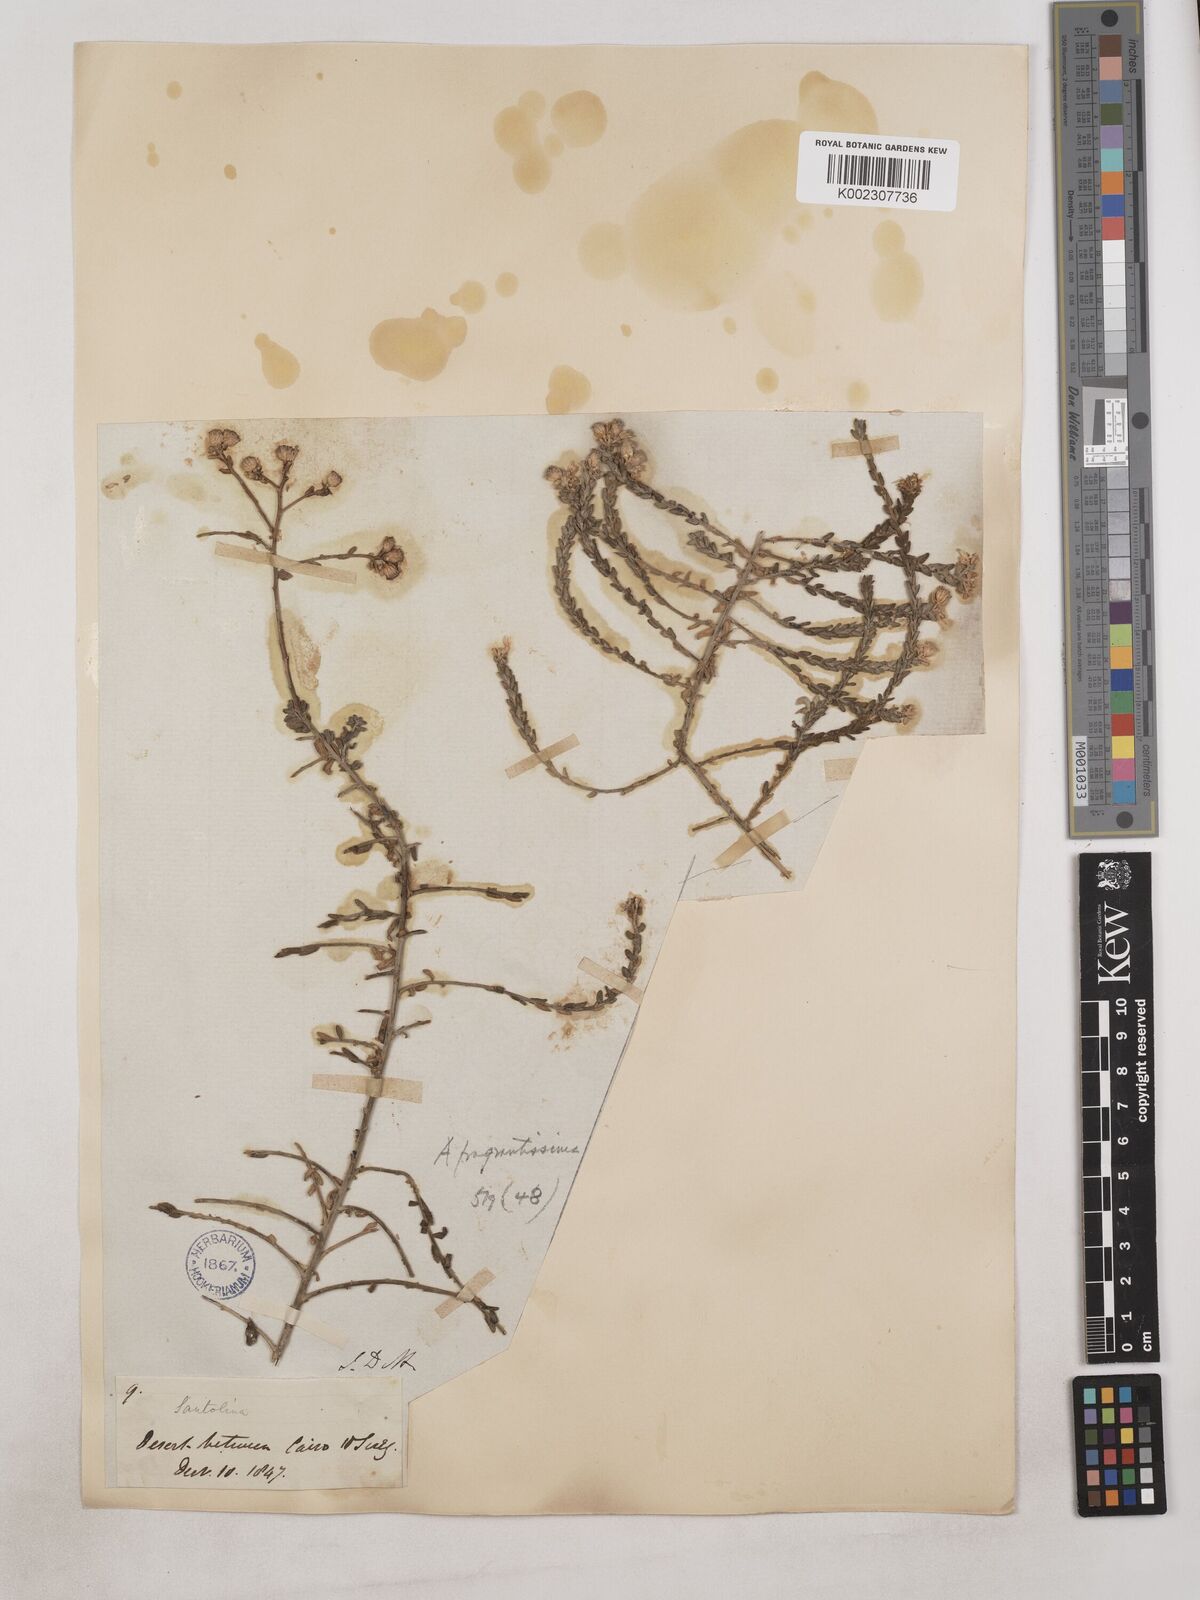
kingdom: Plantae
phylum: Tracheophyta
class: Magnoliopsida
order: Asterales
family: Asteraceae
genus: Achillea
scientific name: Achillea fragrantissima
